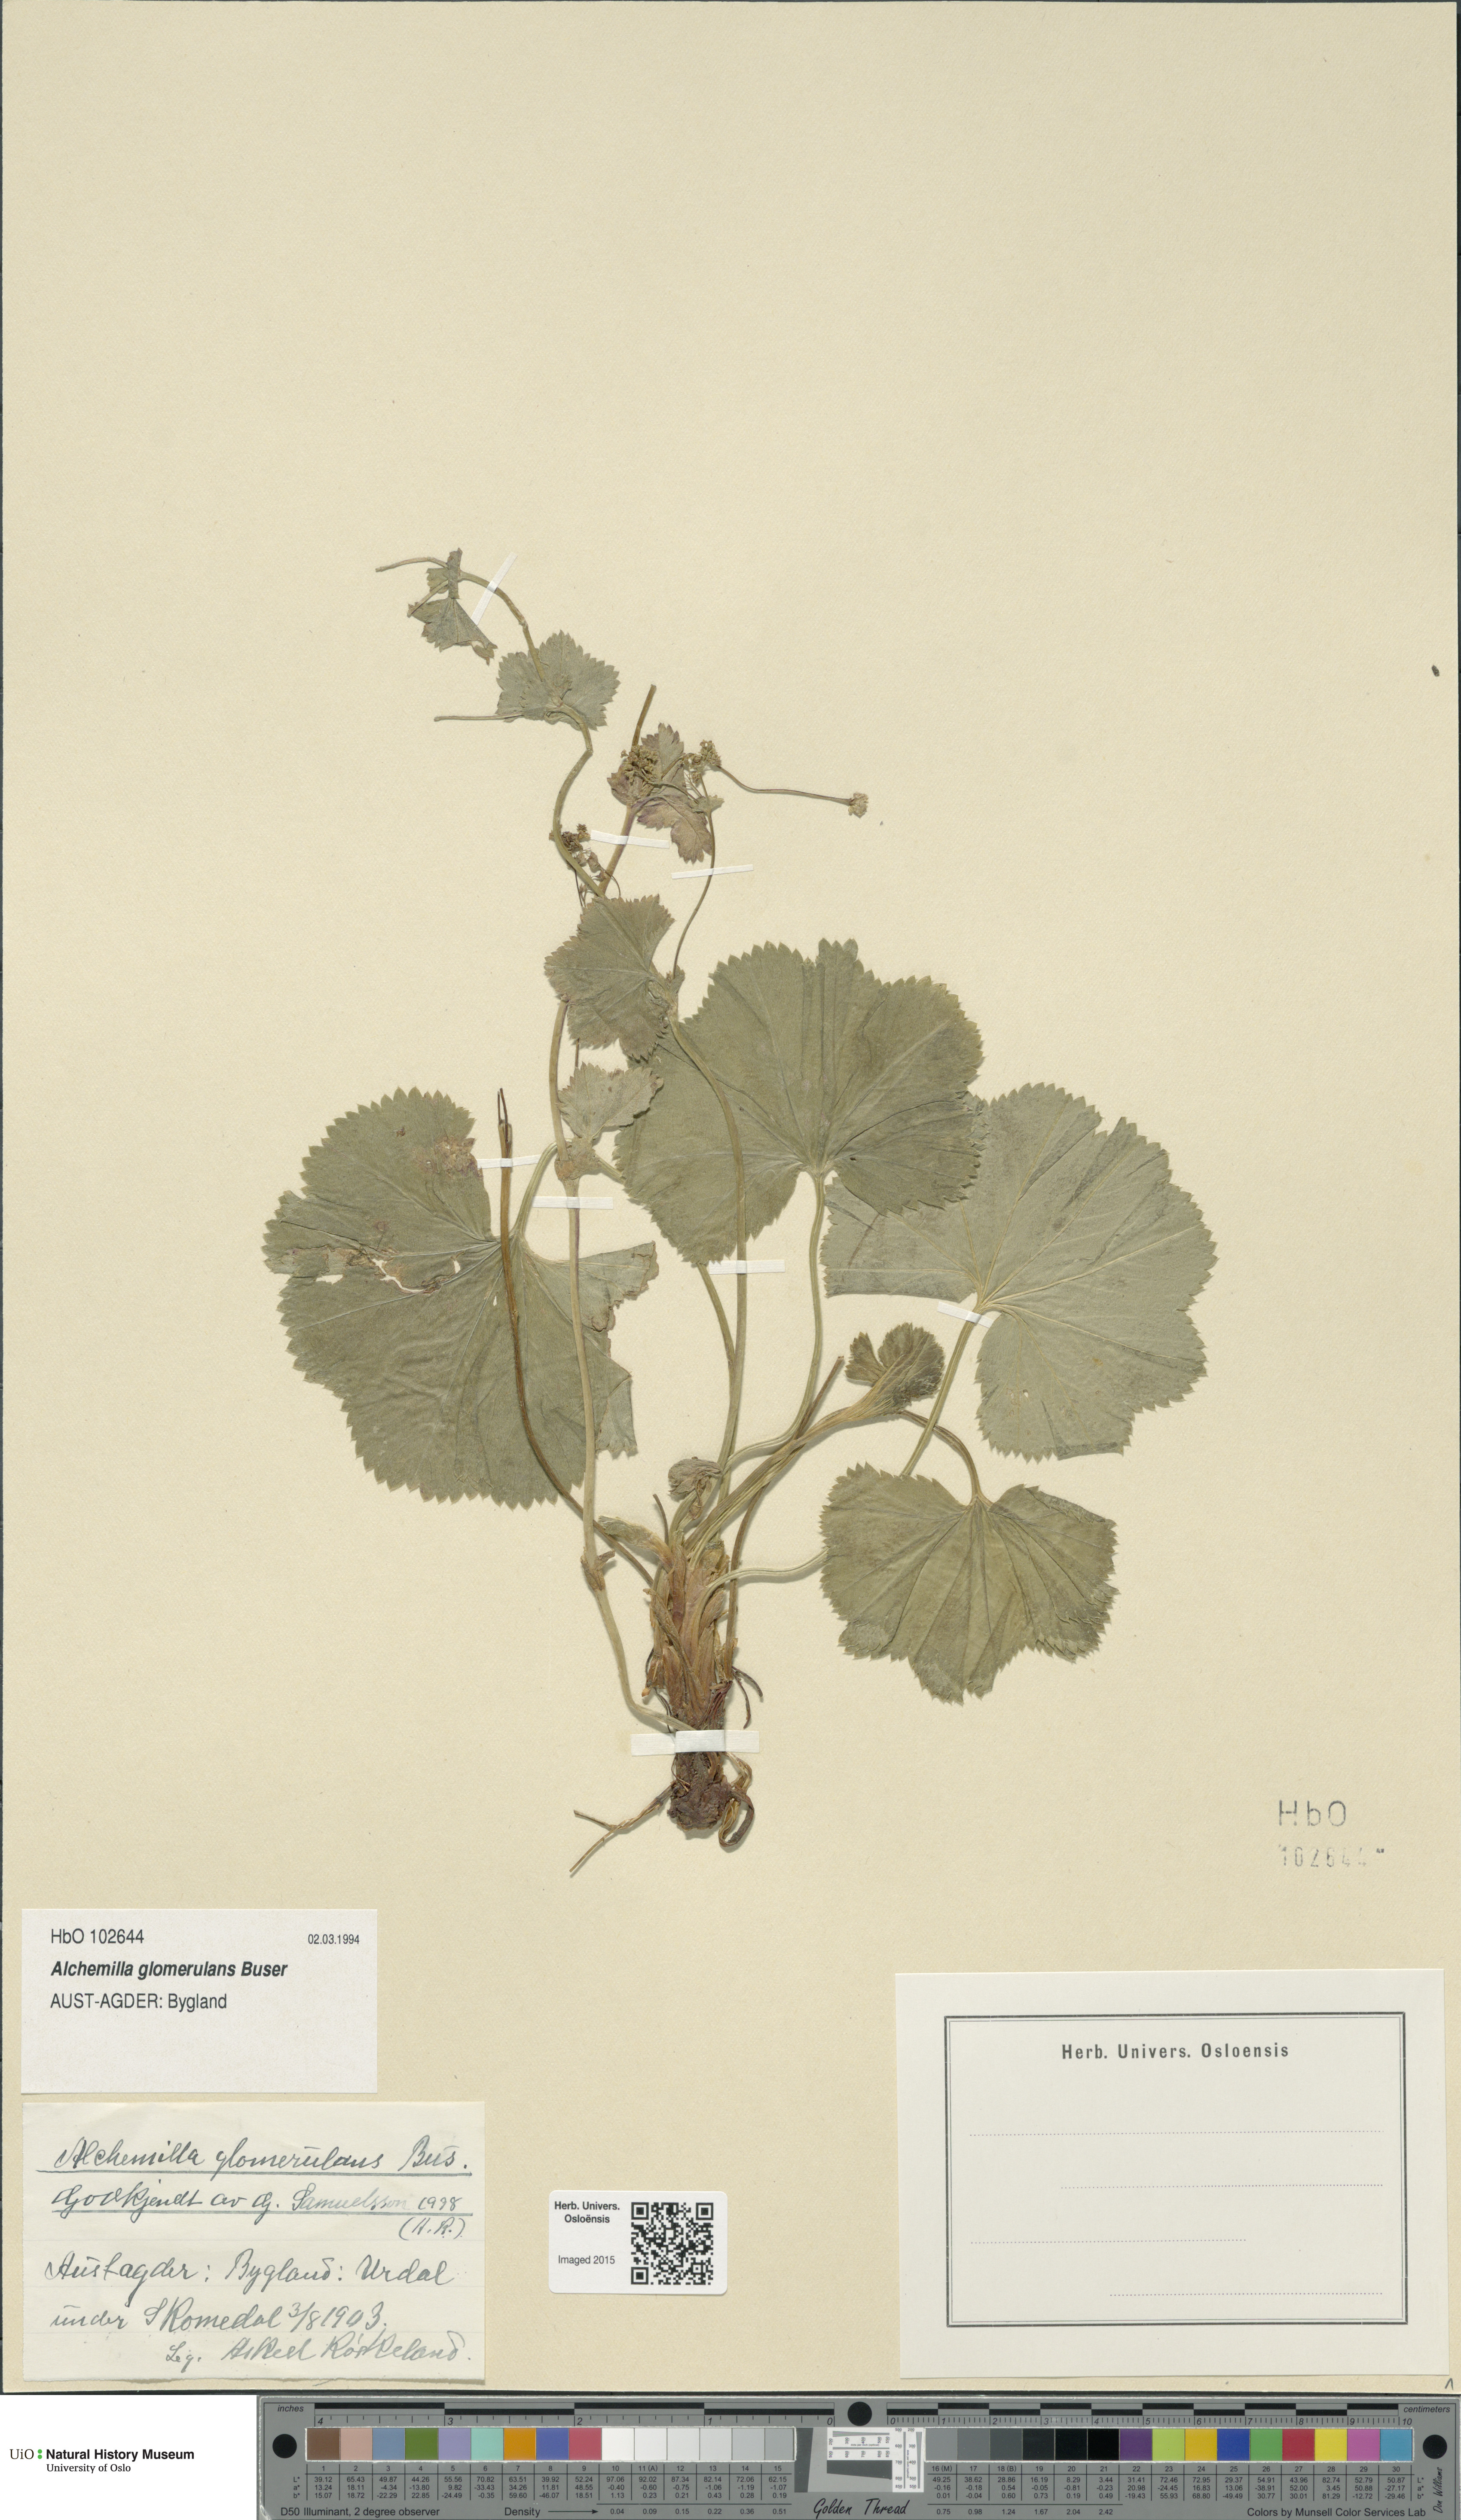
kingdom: Plantae
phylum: Tracheophyta
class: Magnoliopsida
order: Rosales
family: Rosaceae
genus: Alchemilla
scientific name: Alchemilla glomerulans
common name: Clustered lady's mantle
